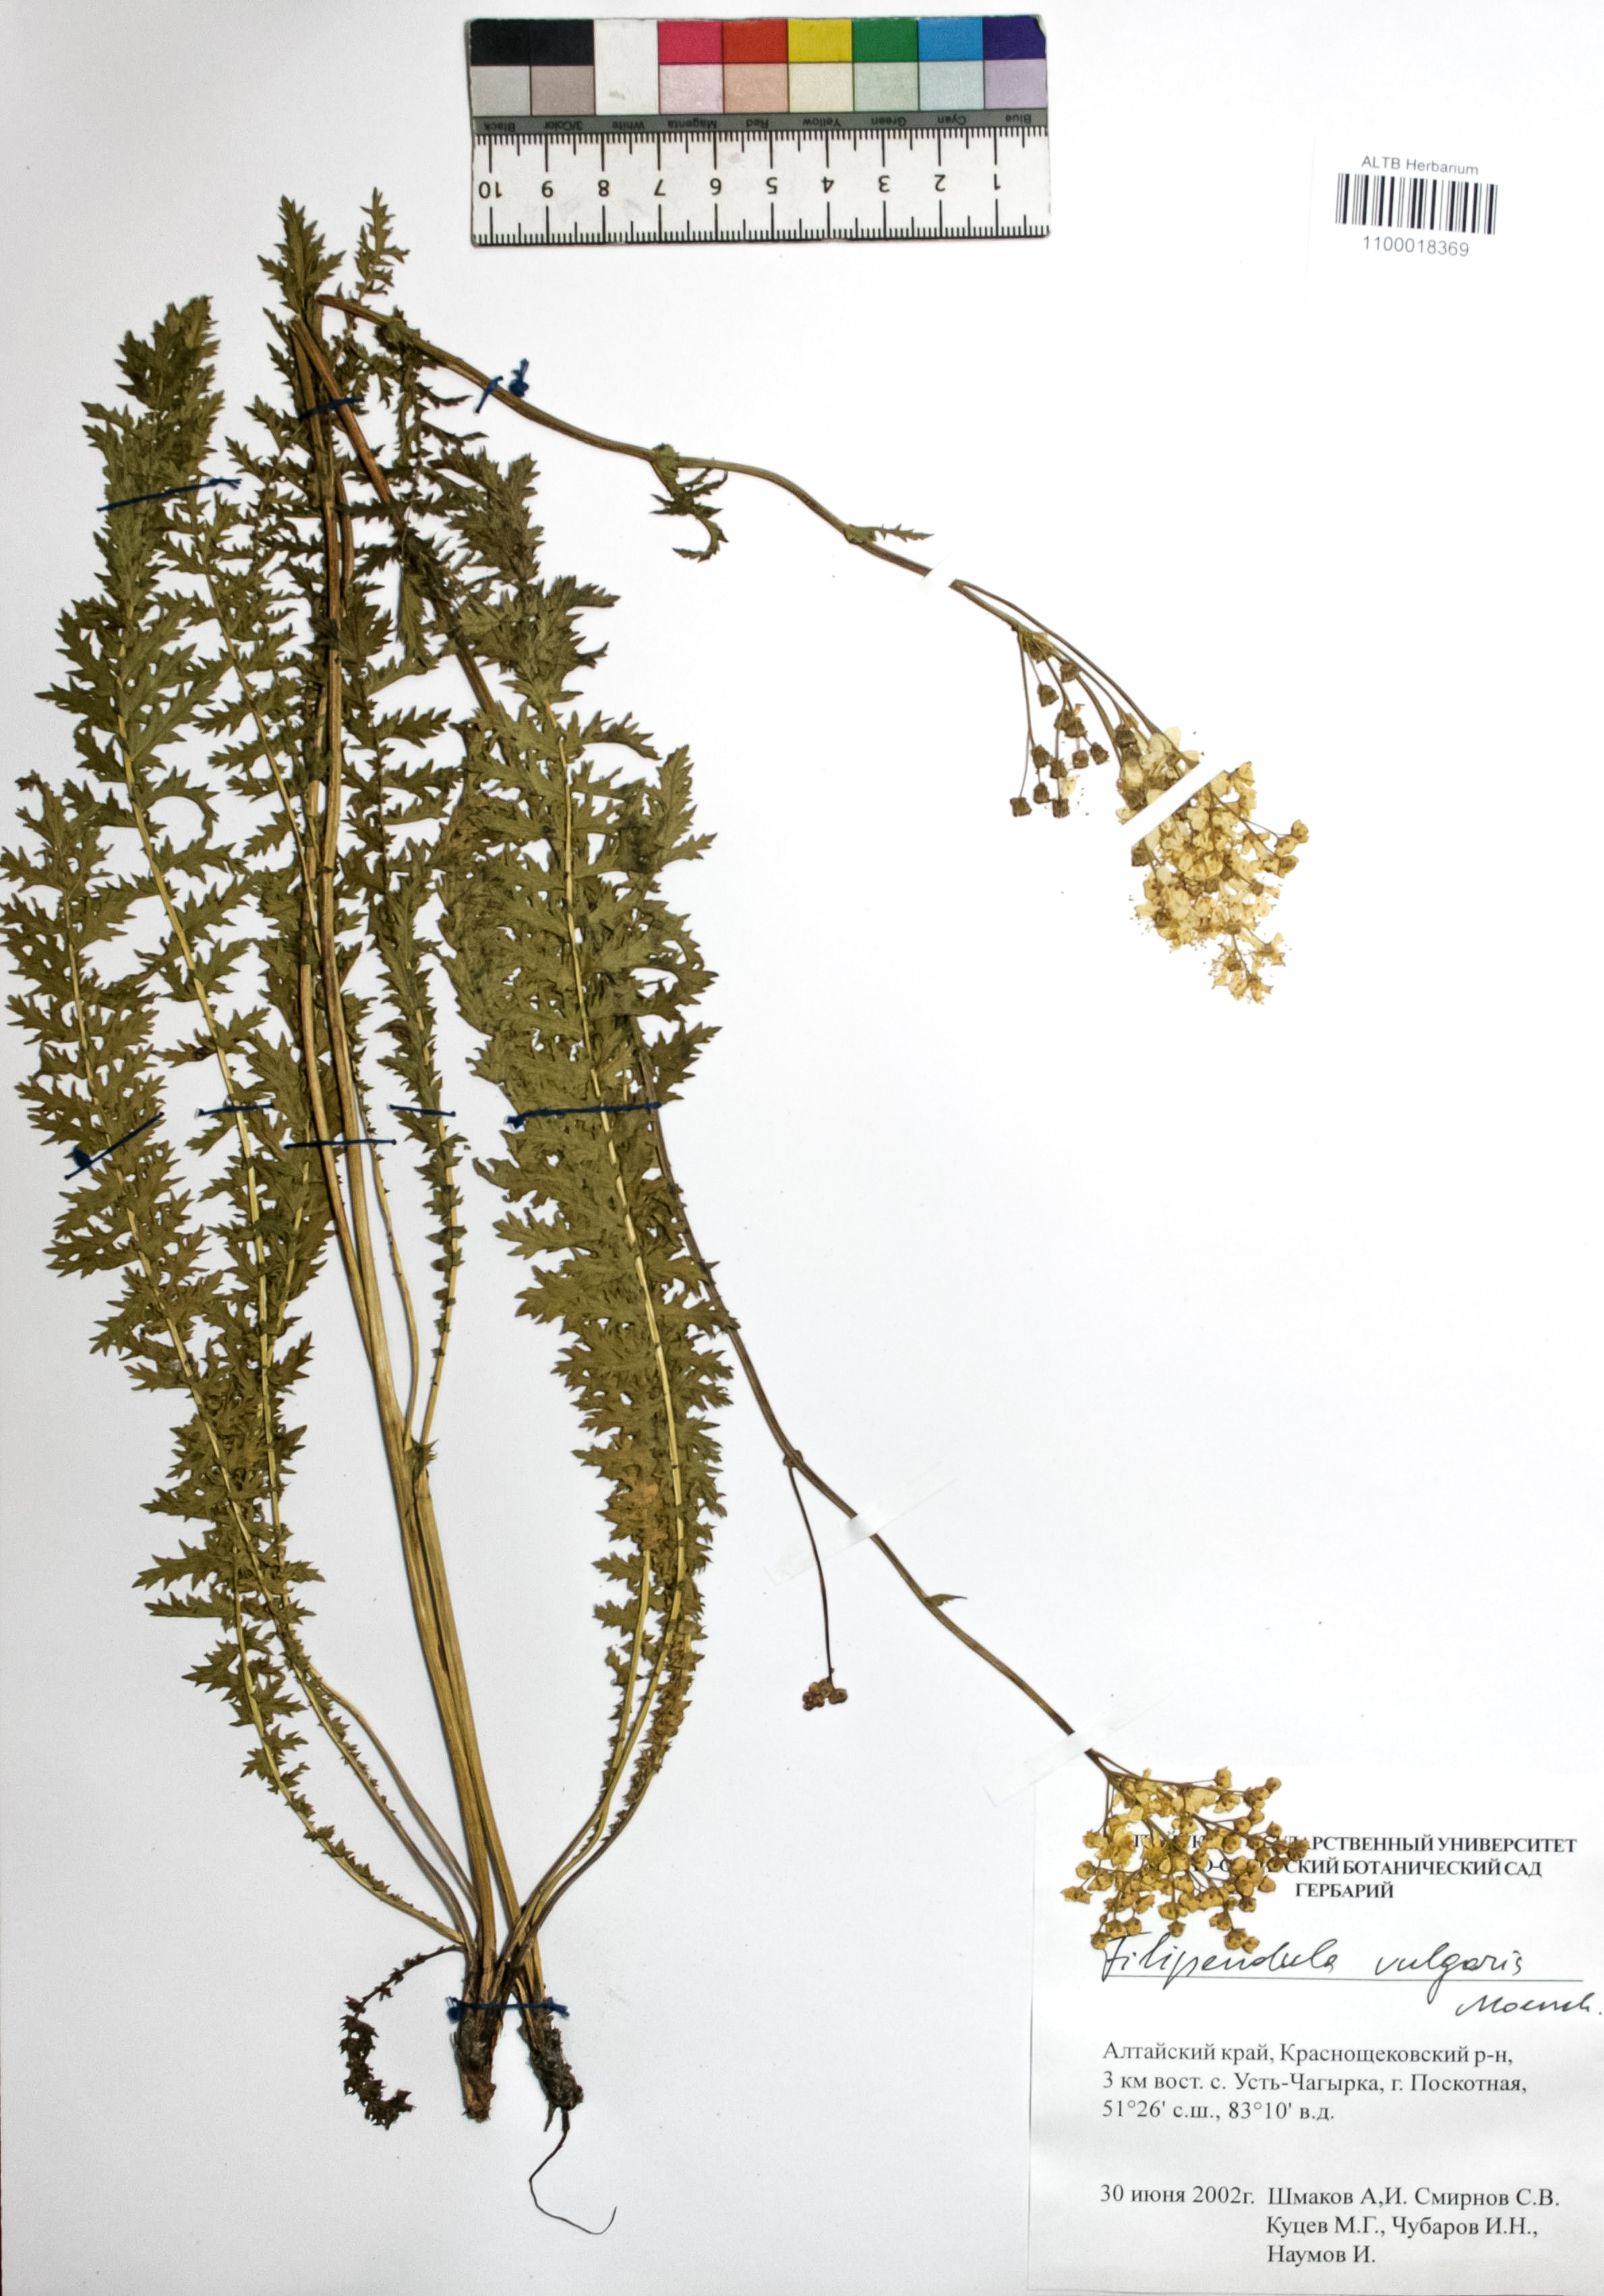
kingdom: Plantae
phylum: Tracheophyta
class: Magnoliopsida
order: Rosales
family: Rosaceae
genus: Filipendula
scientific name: Filipendula vulgaris
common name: Dropwort
